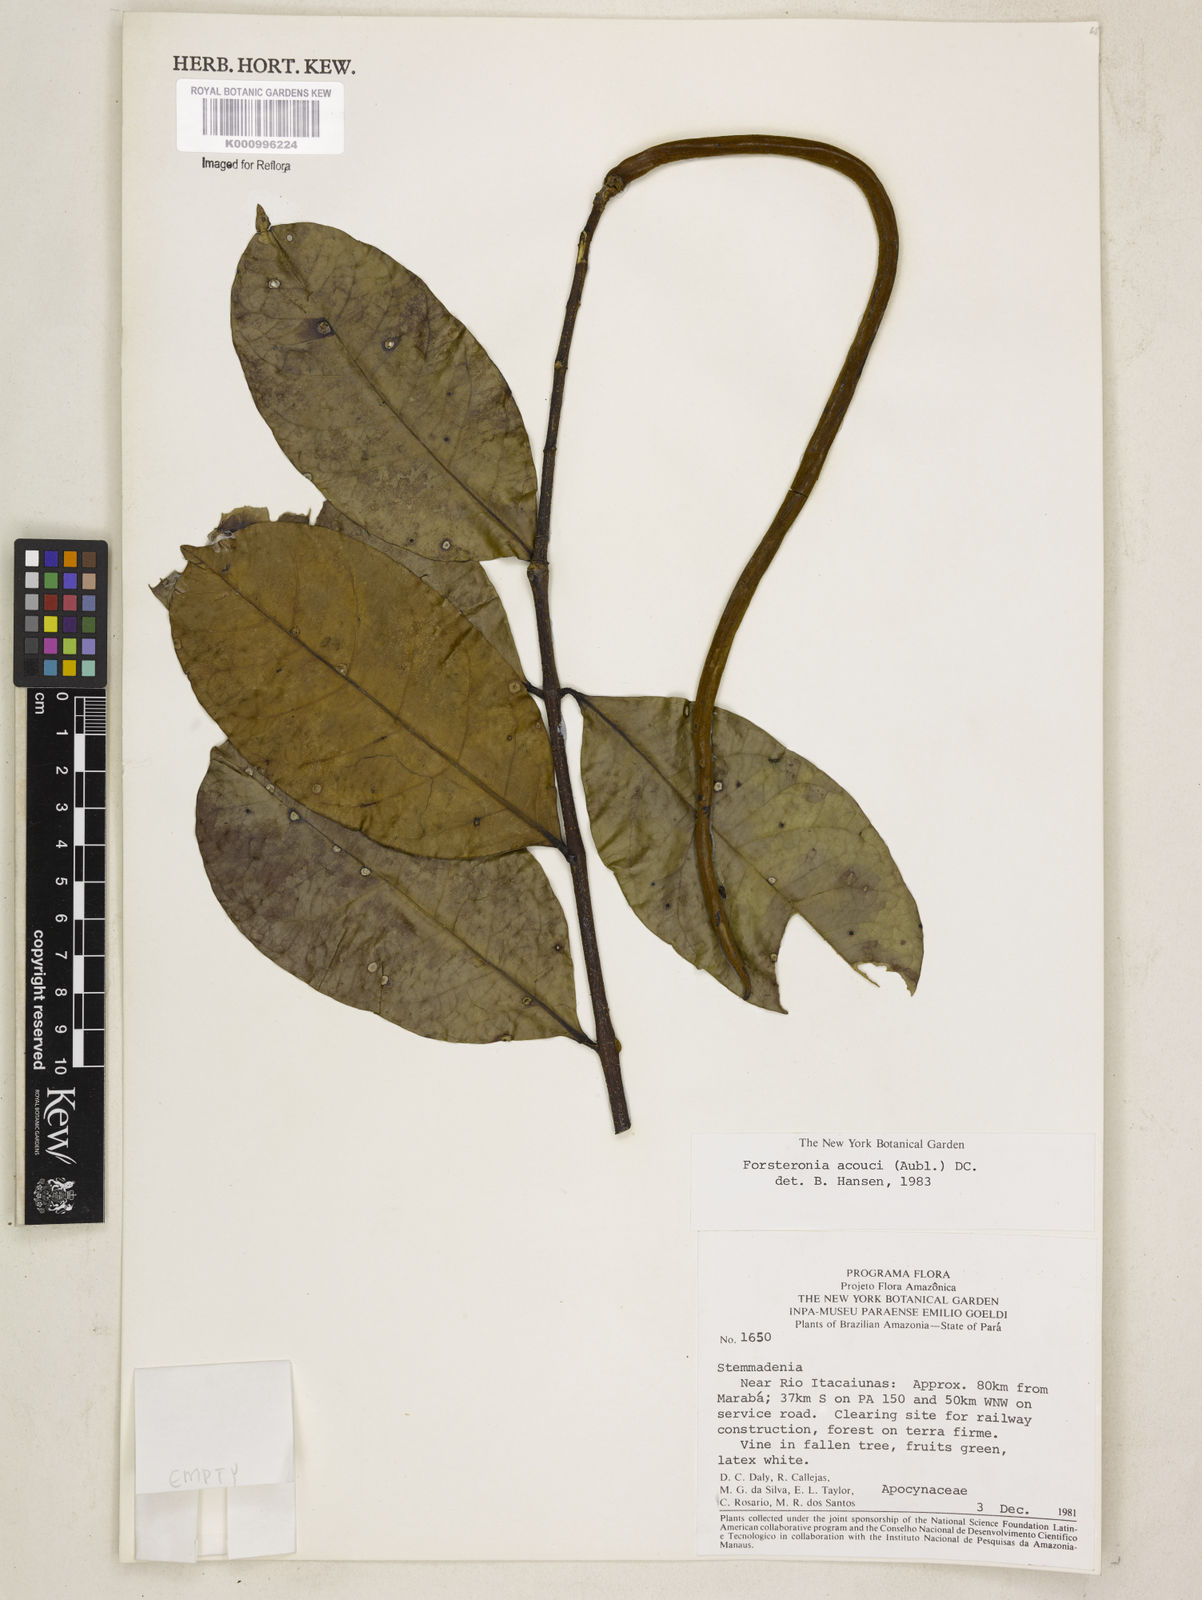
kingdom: Plantae
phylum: Tracheophyta
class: Magnoliopsida
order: Gentianales
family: Apocynaceae
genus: Forsteronia
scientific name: Forsteronia acouci
